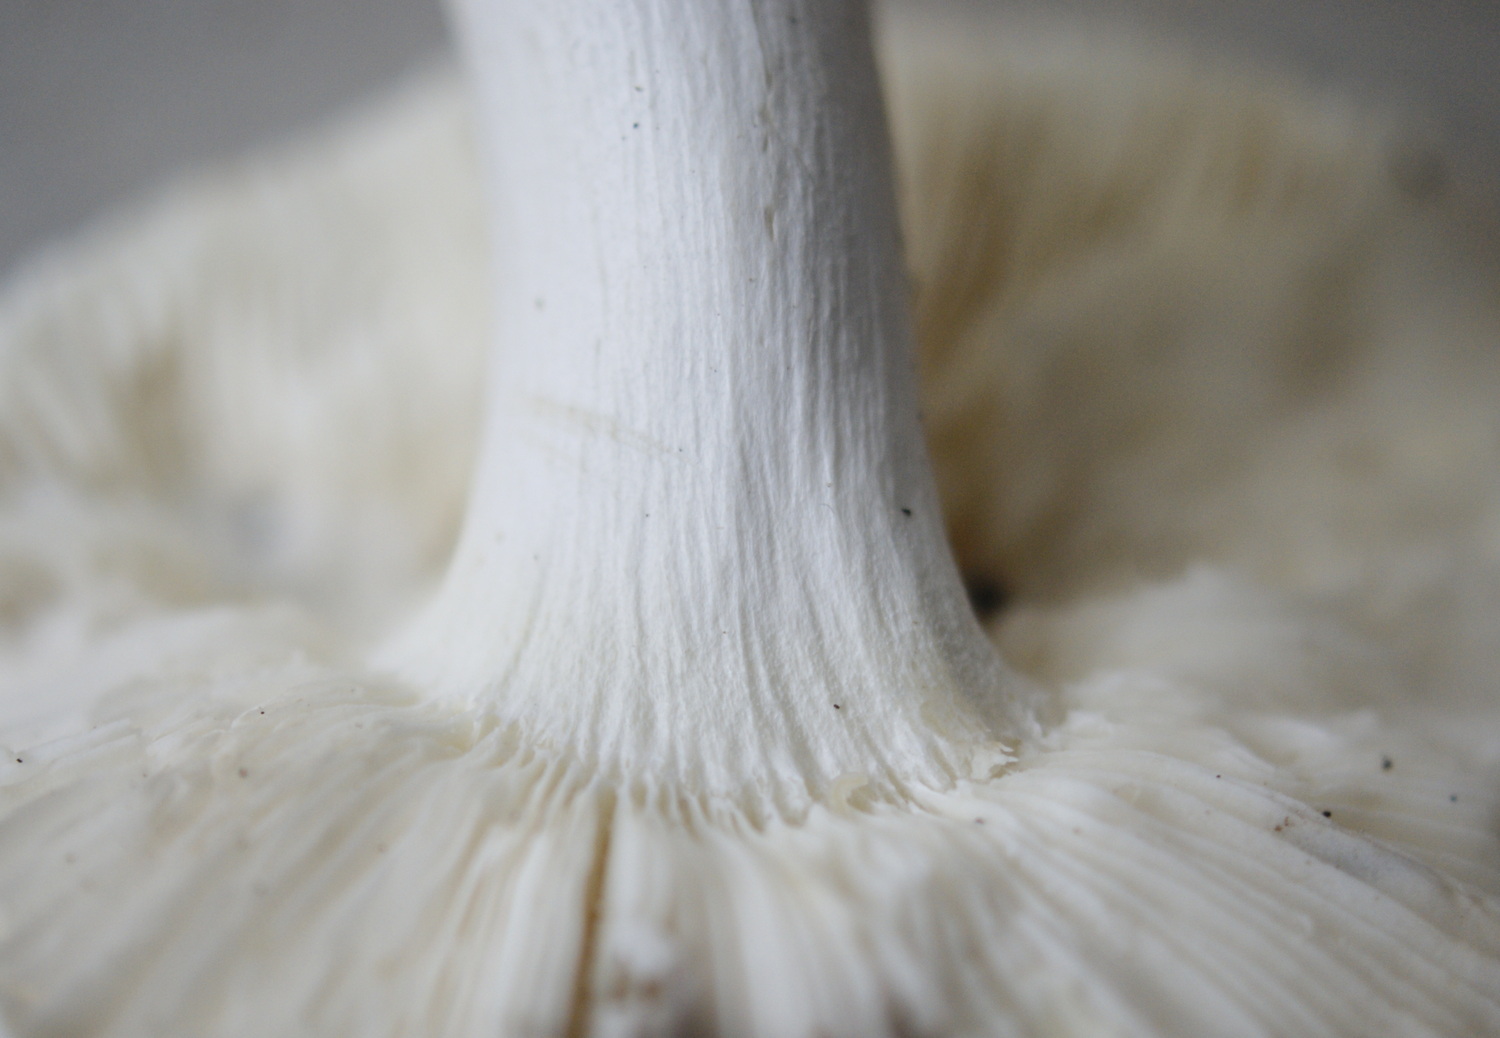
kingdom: Fungi
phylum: Basidiomycota
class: Agaricomycetes
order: Russulales
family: Russulaceae
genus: Russula
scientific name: Russula aurora
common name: rosa skørhat
